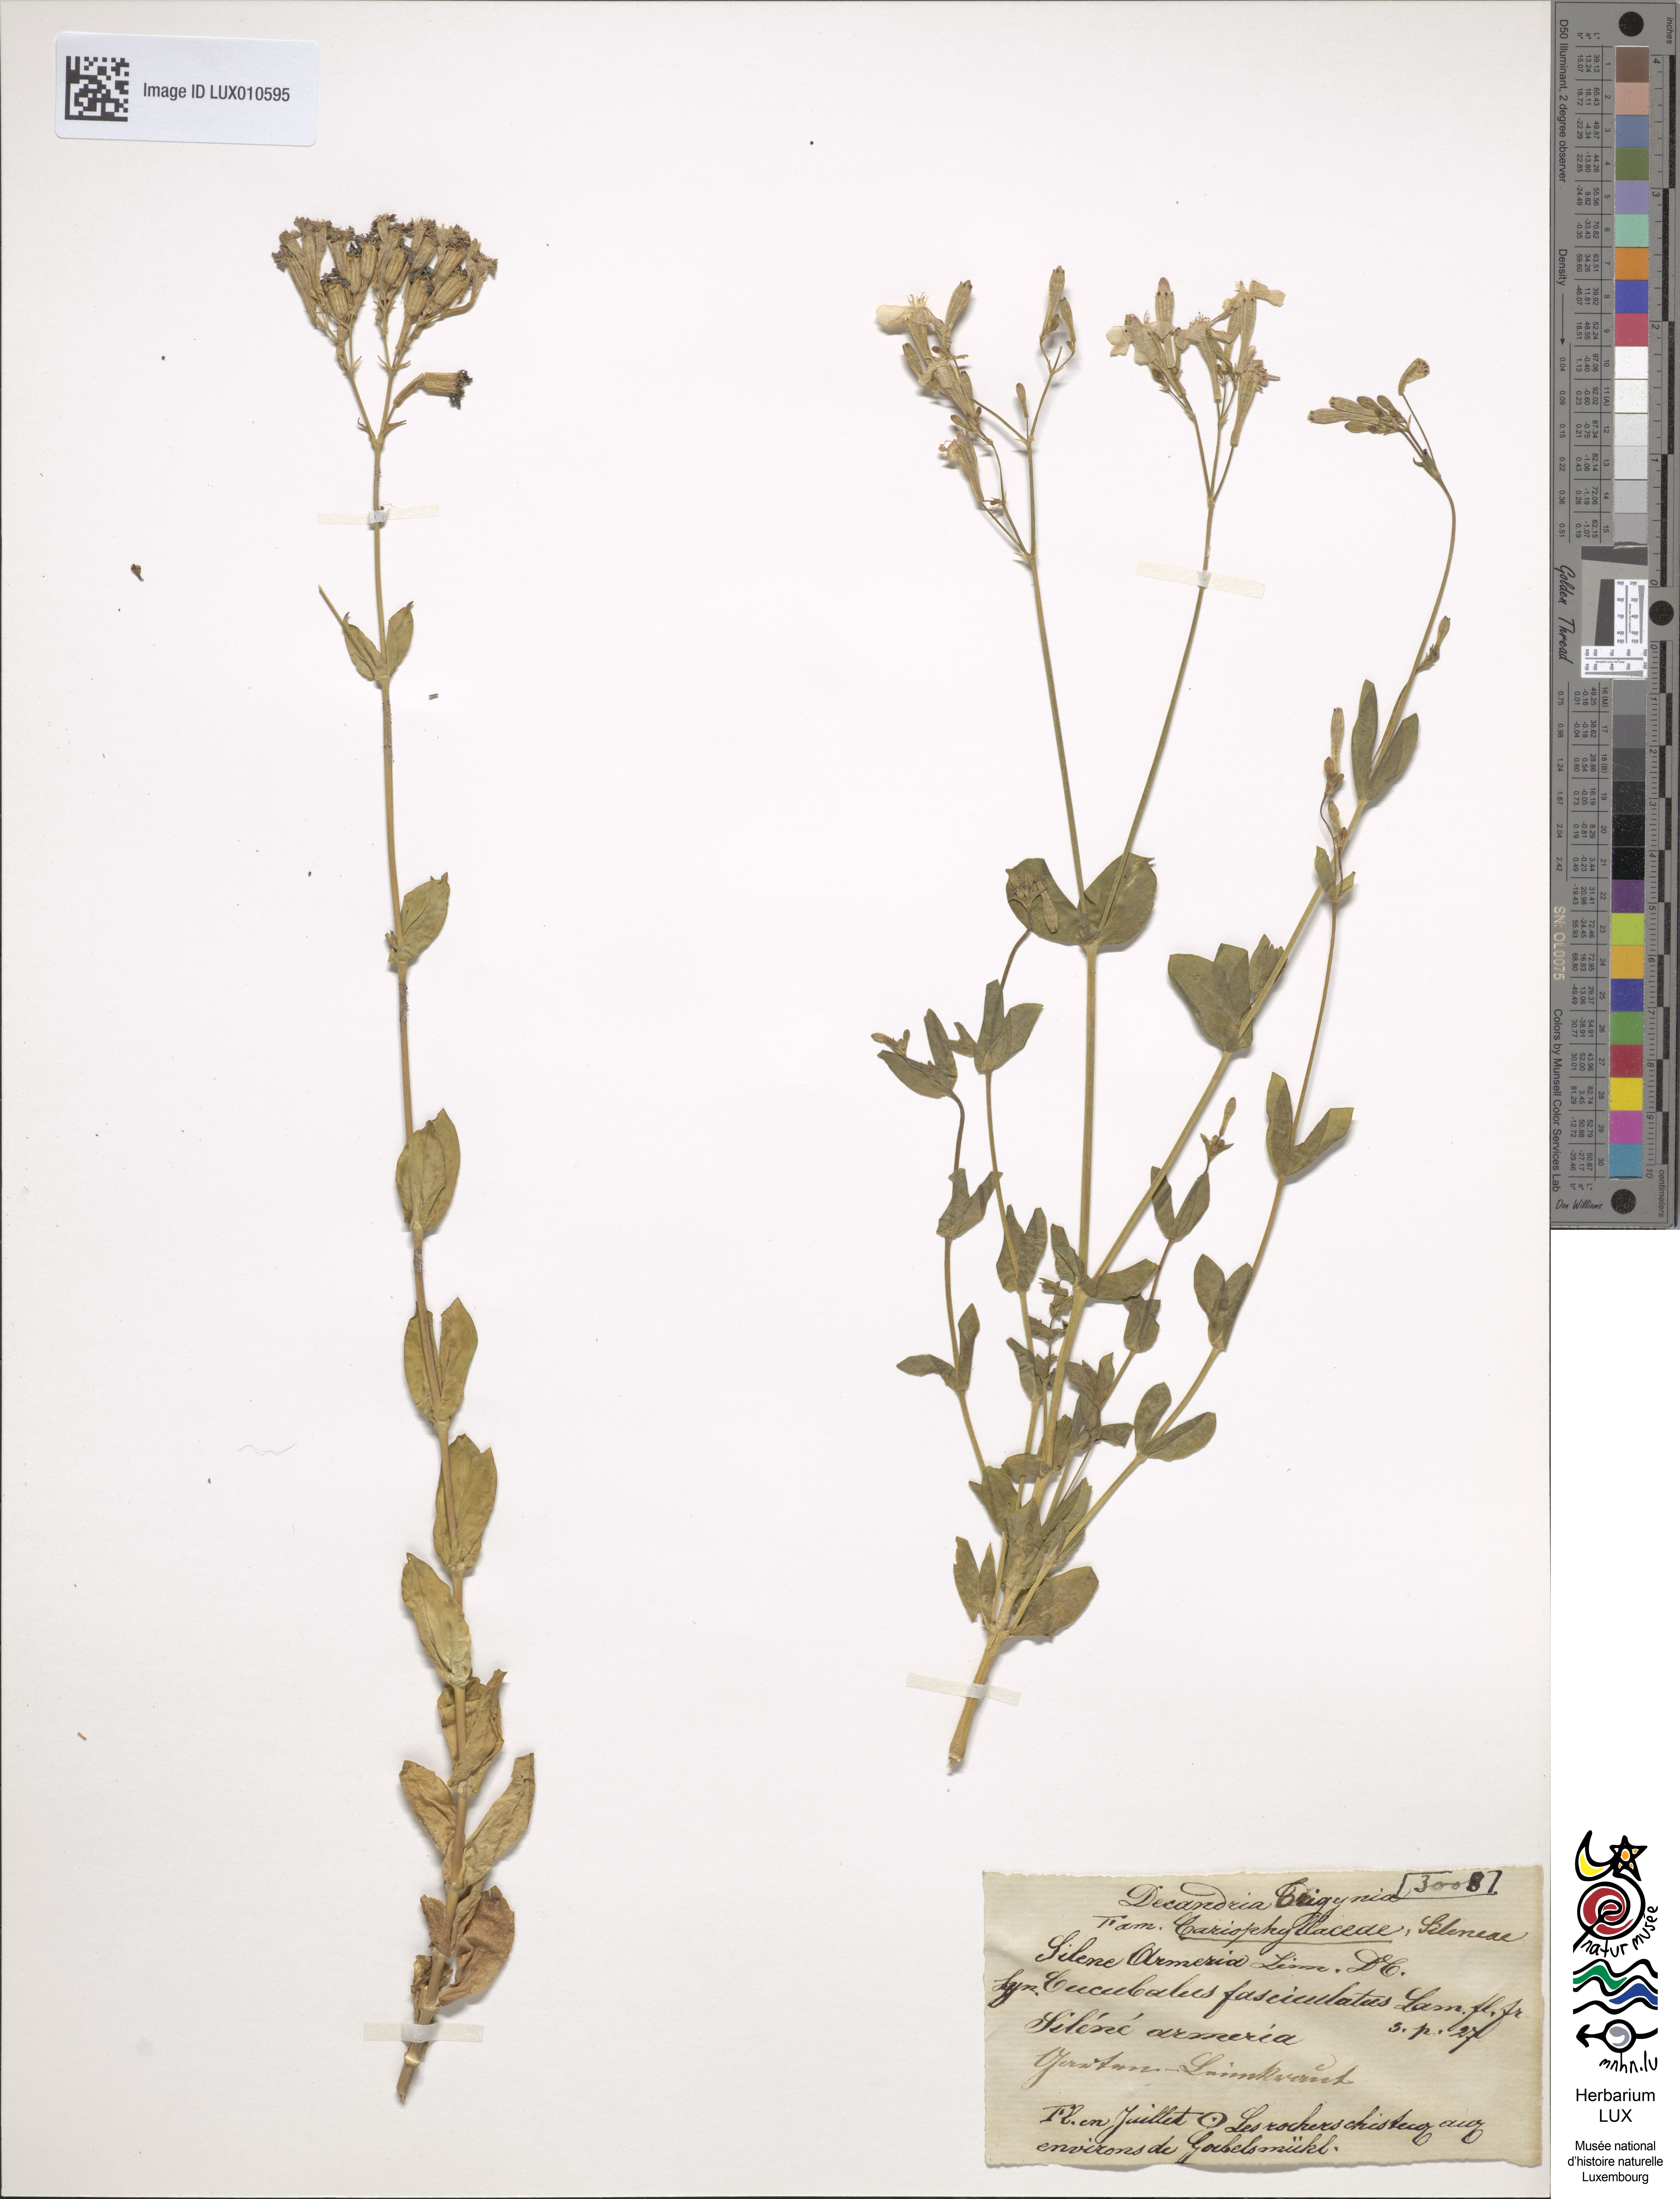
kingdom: Plantae
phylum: Tracheophyta
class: Magnoliopsida
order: Caryophyllales
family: Caryophyllaceae
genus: Atocion
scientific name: Atocion armeria
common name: Sweet william catchfly
